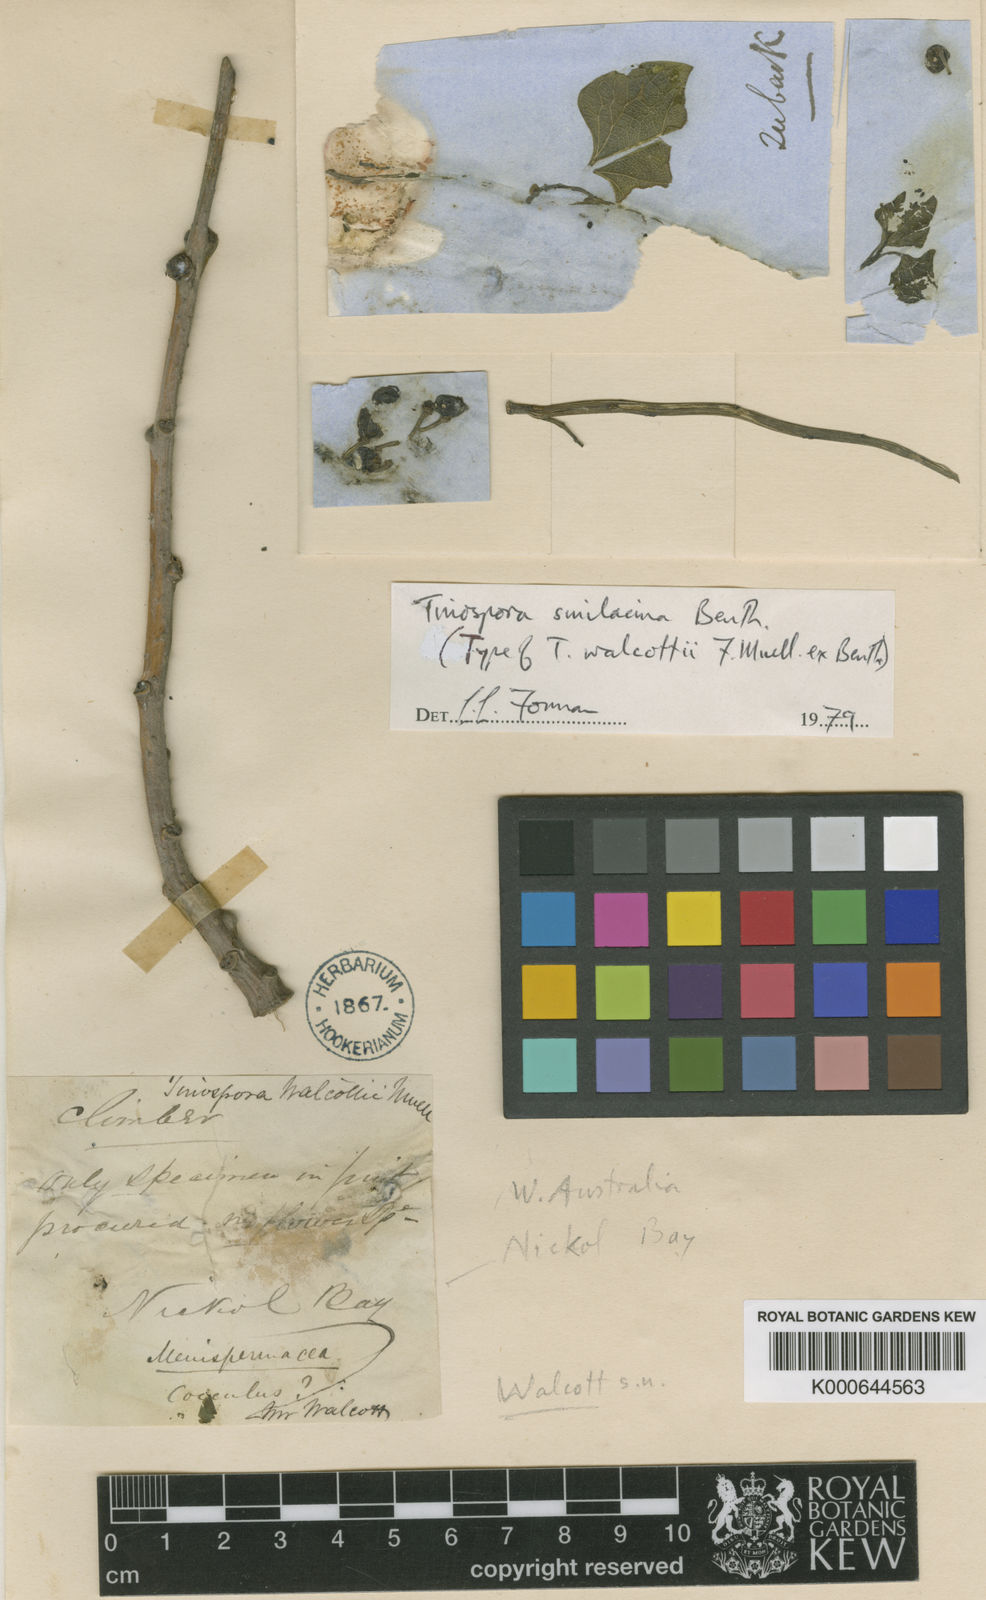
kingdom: Plantae
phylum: Tracheophyta
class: Magnoliopsida
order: Ranunculales
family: Menispermaceae
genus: Tinospora
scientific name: Tinospora smilacina
